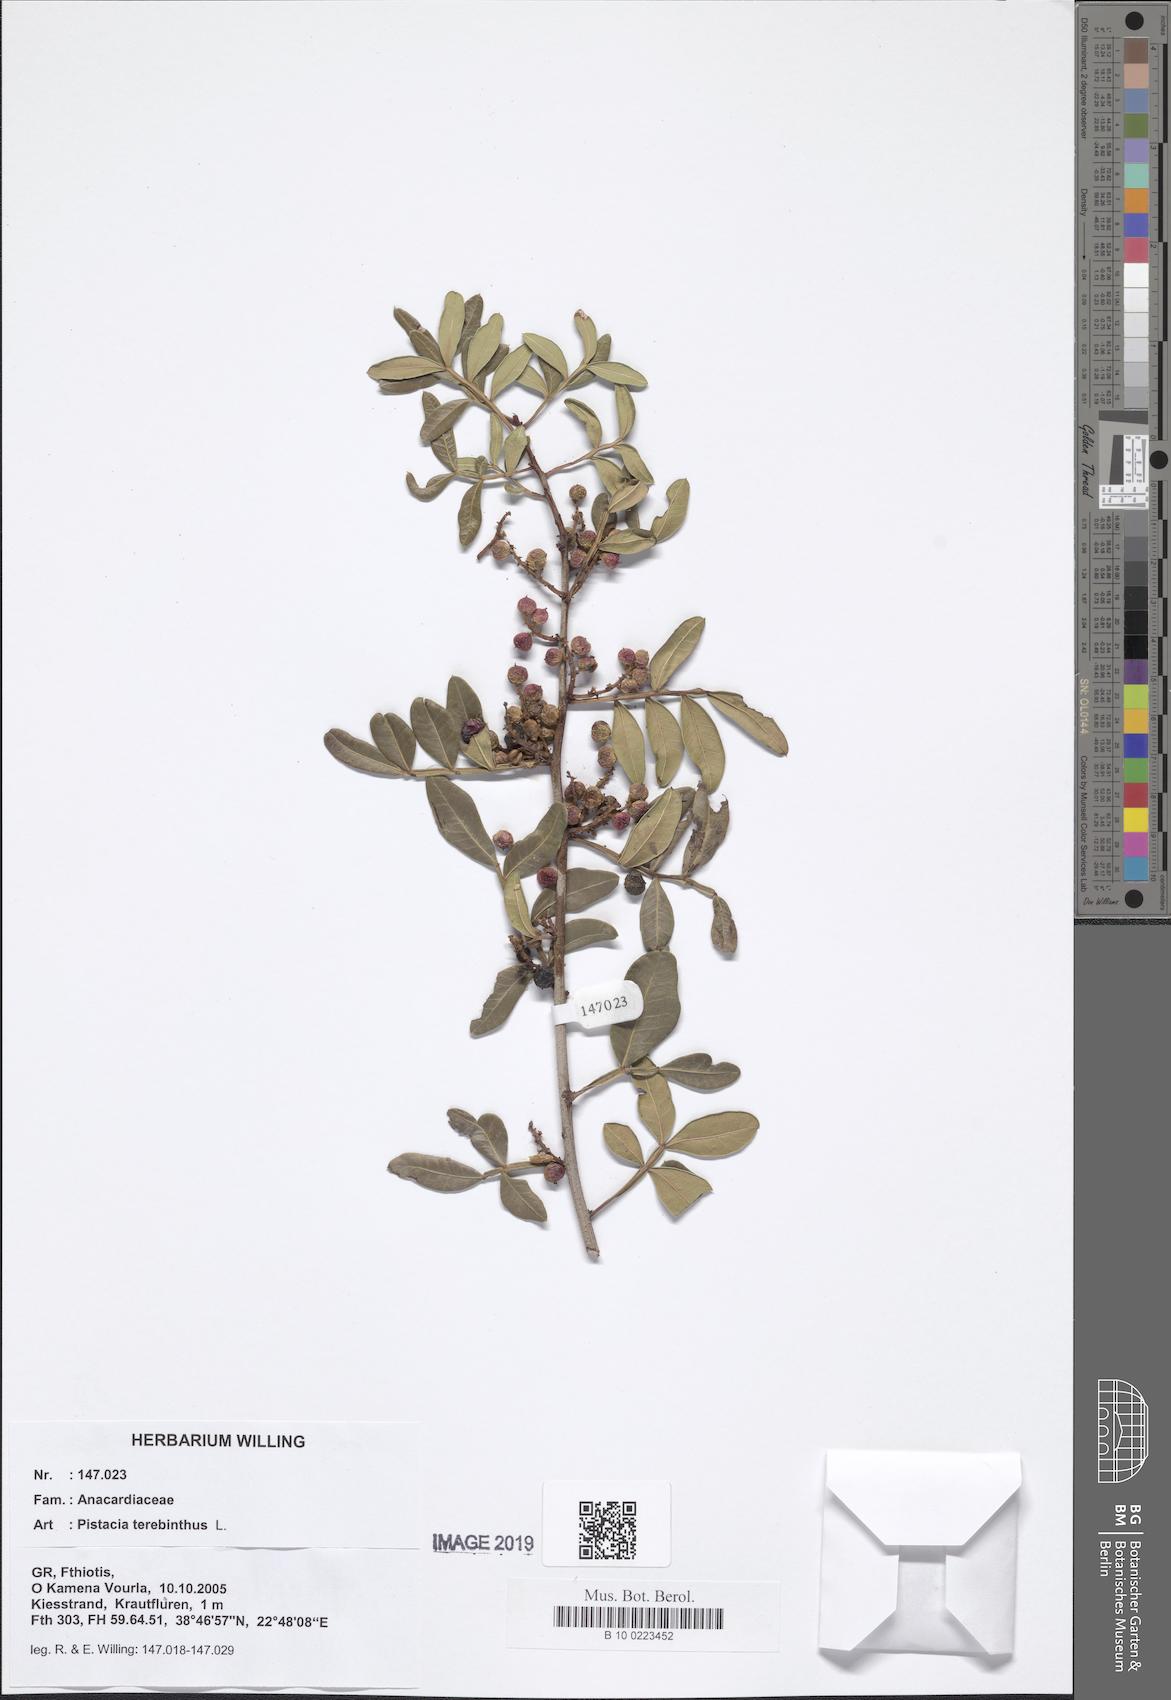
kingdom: Plantae
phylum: Tracheophyta
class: Magnoliopsida
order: Sapindales
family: Anacardiaceae
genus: Pistacia
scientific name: Pistacia terebinthus
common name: Terebinth
